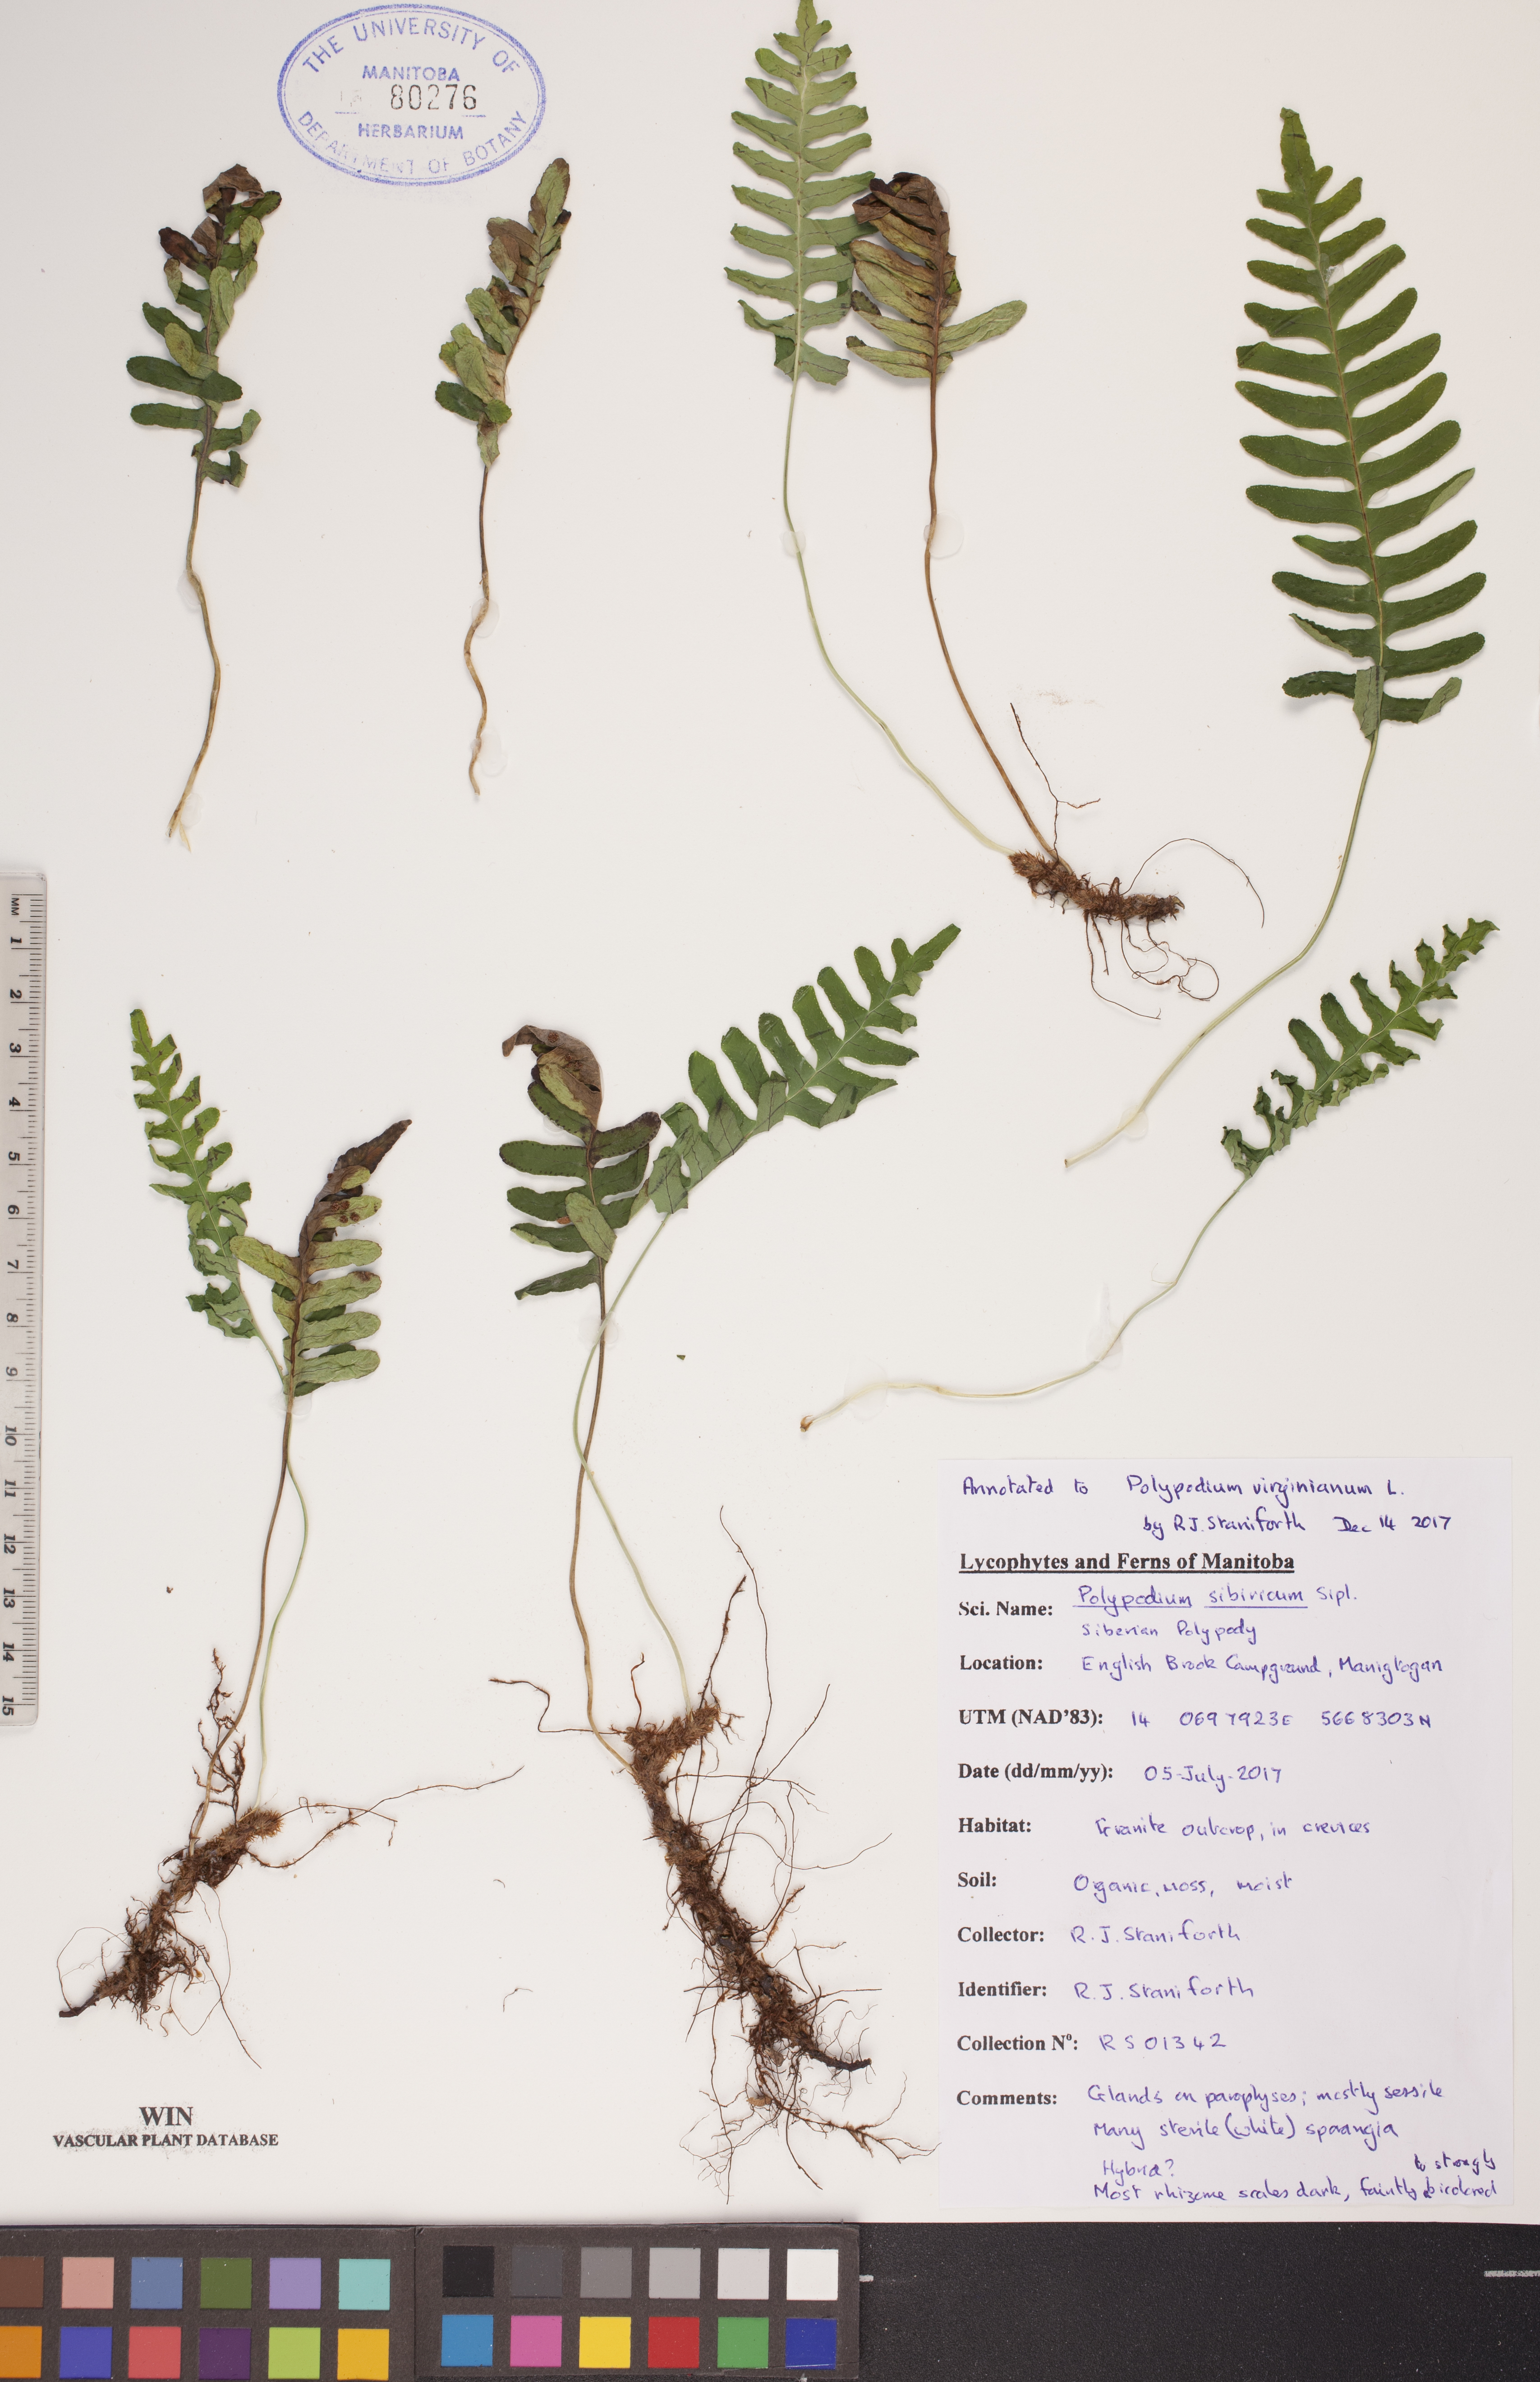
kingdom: Plantae
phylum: Tracheophyta
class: Polypodiopsida
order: Polypodiales
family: Polypodiaceae
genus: Polypodium
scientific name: Polypodium virginianum
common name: American wall fern
